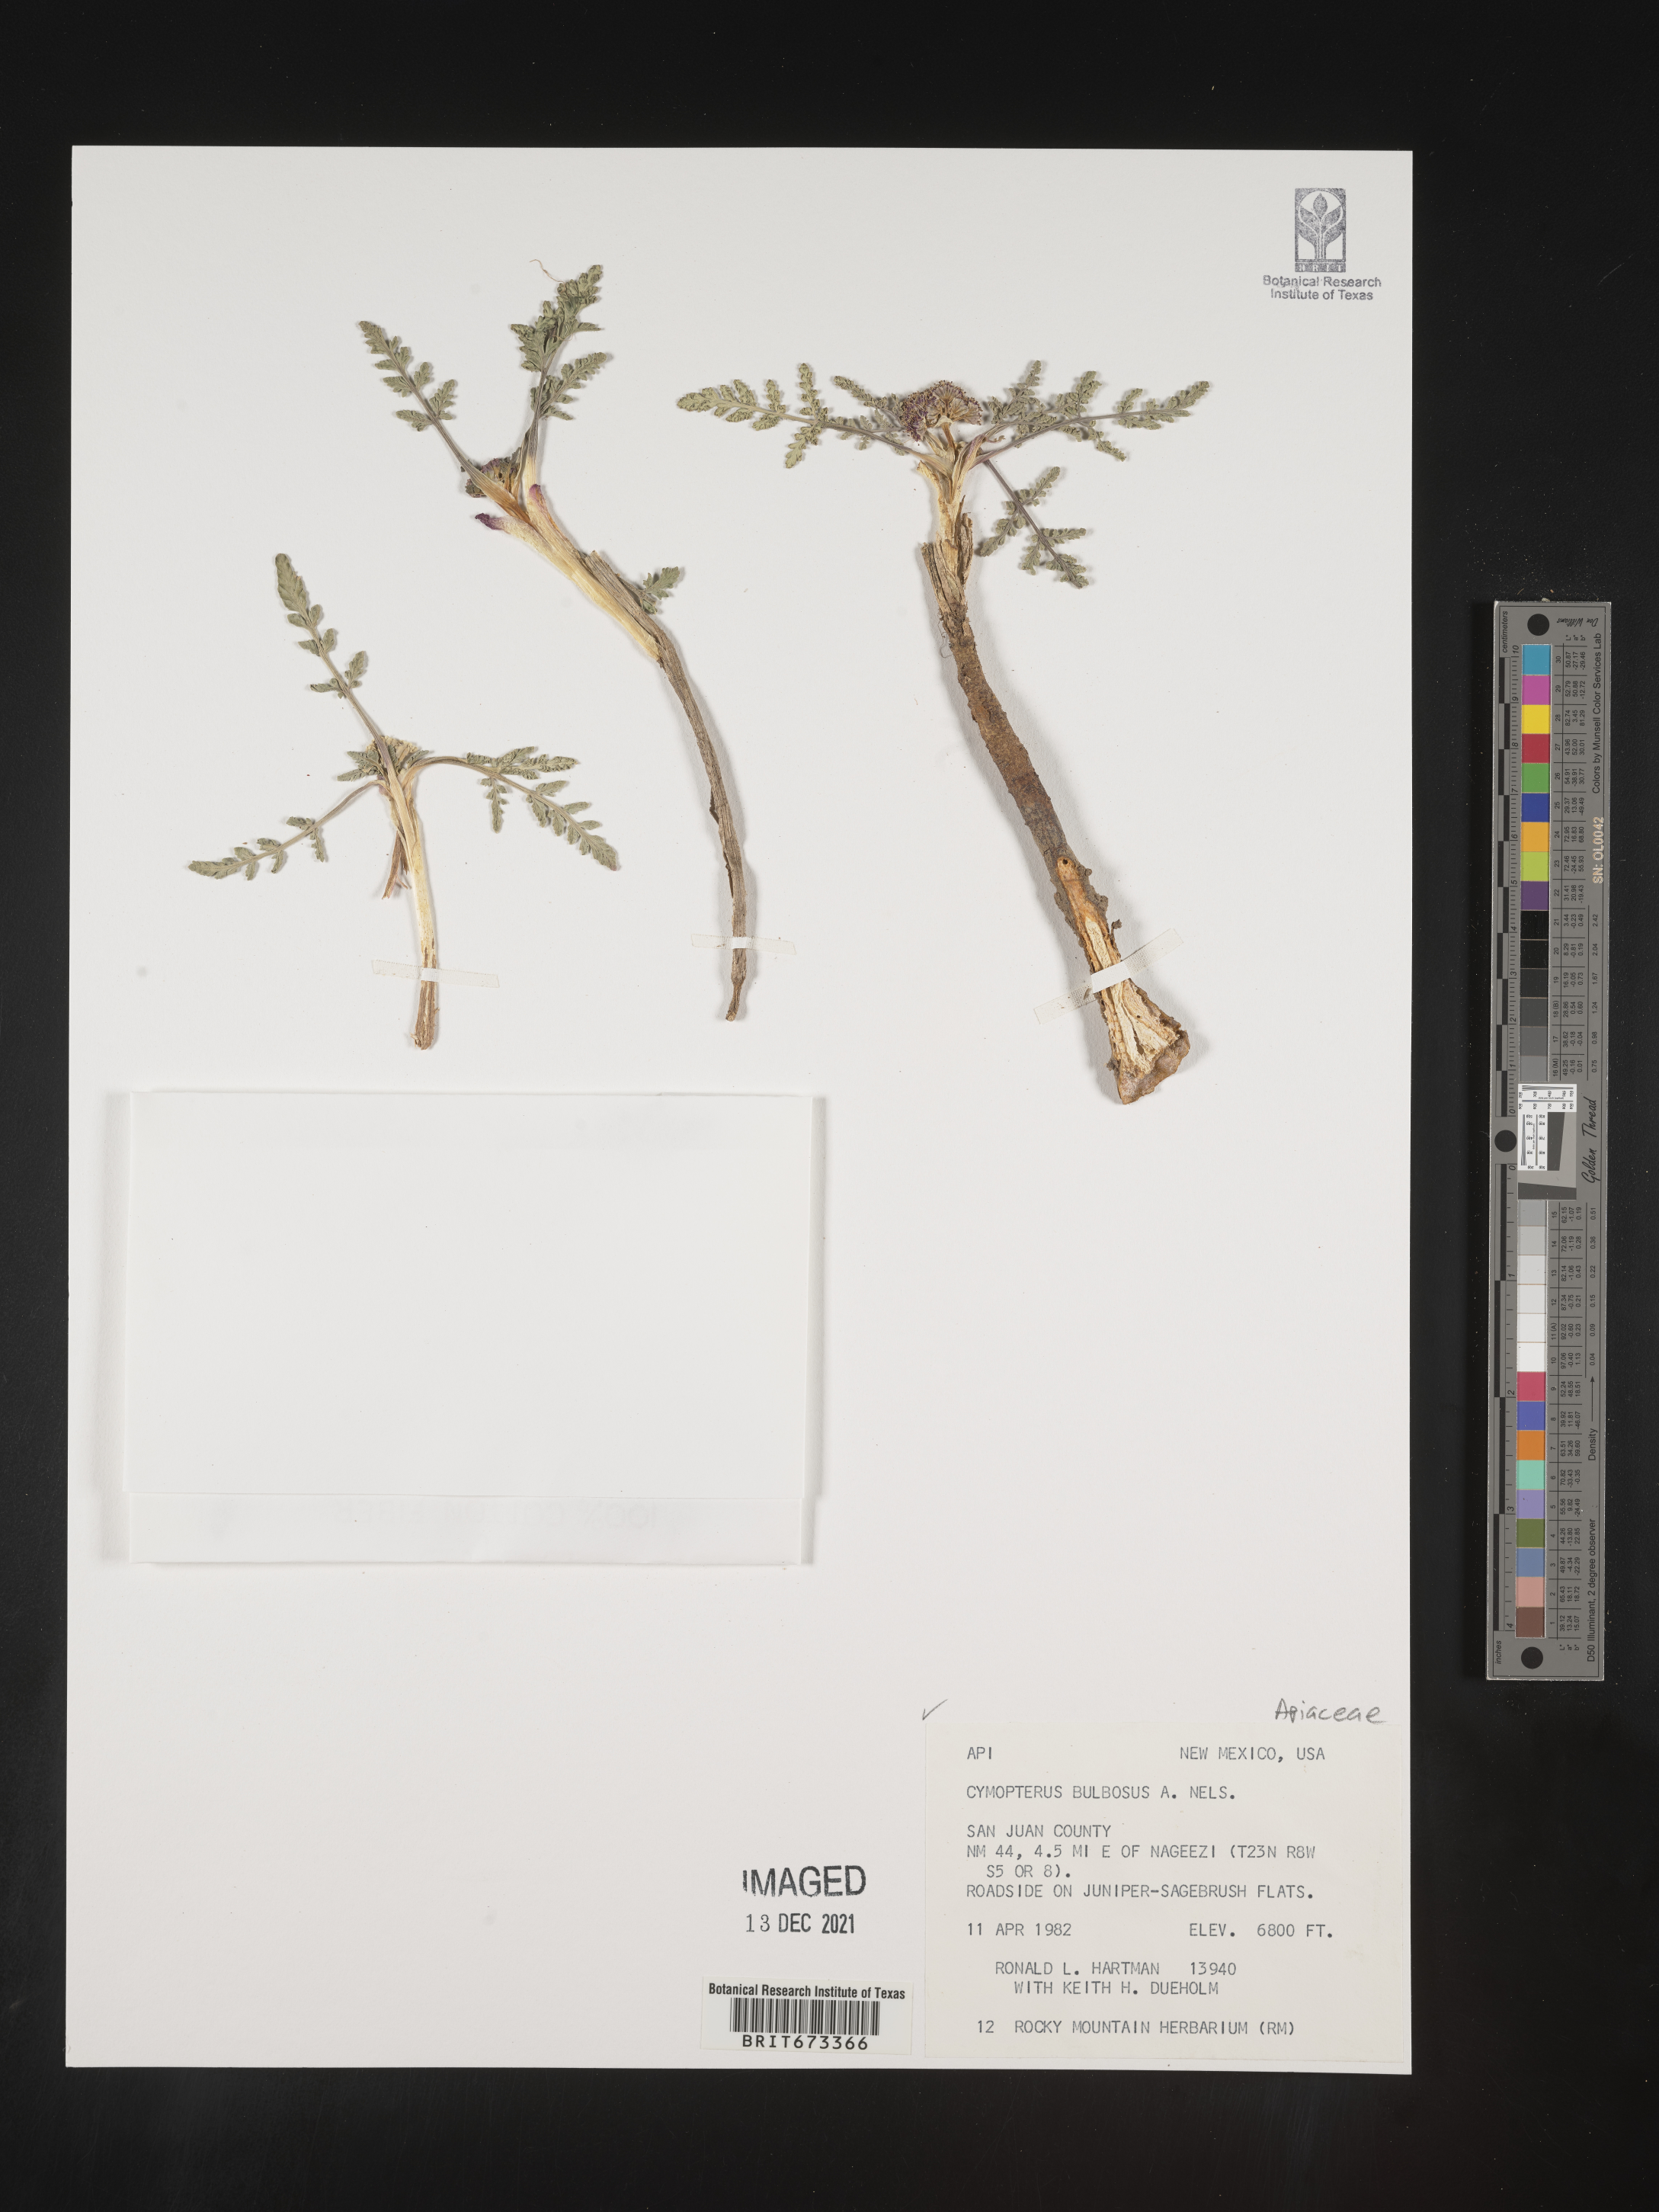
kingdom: Plantae
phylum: Tracheophyta
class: Magnoliopsida
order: Apiales
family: Apiaceae
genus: Vesper
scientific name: Vesper bulbosus
